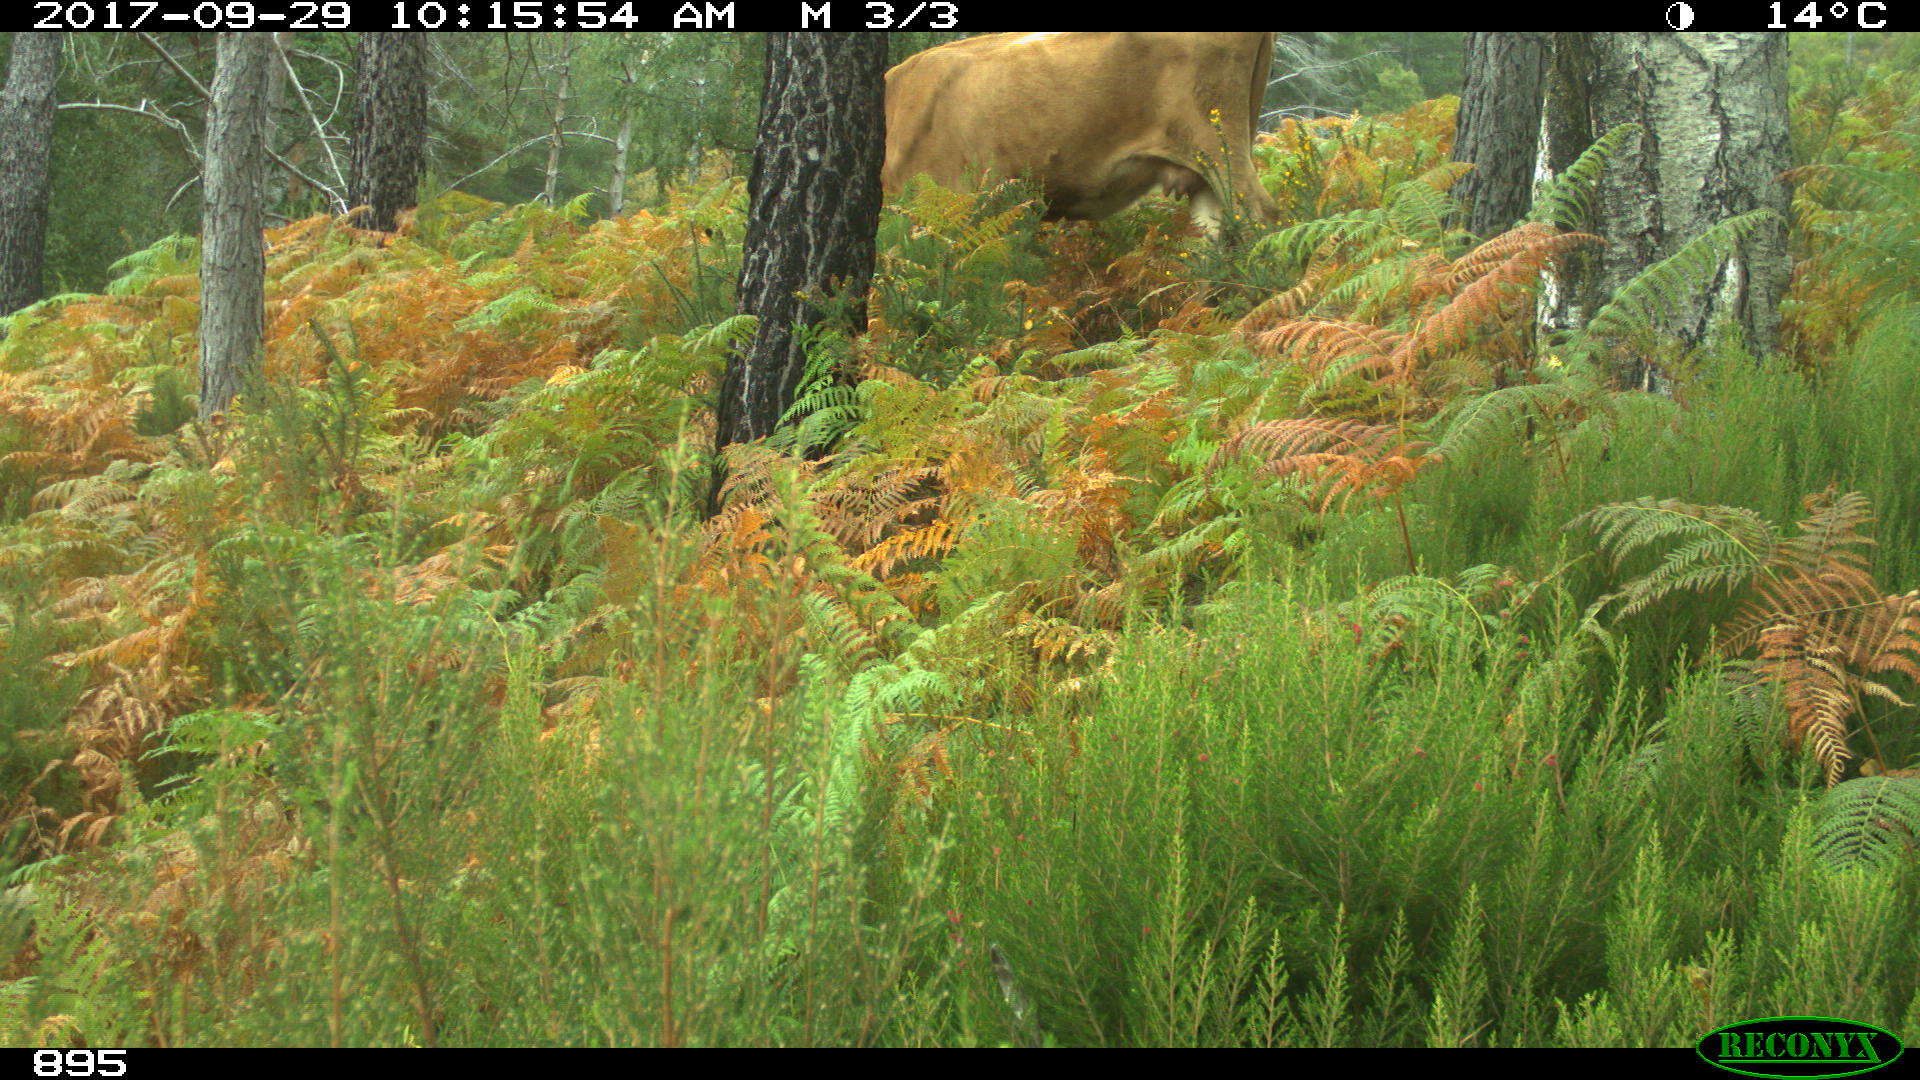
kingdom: Animalia
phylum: Chordata
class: Mammalia
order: Artiodactyla
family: Bovidae
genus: Bos
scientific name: Bos taurus
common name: Domesticated cattle
